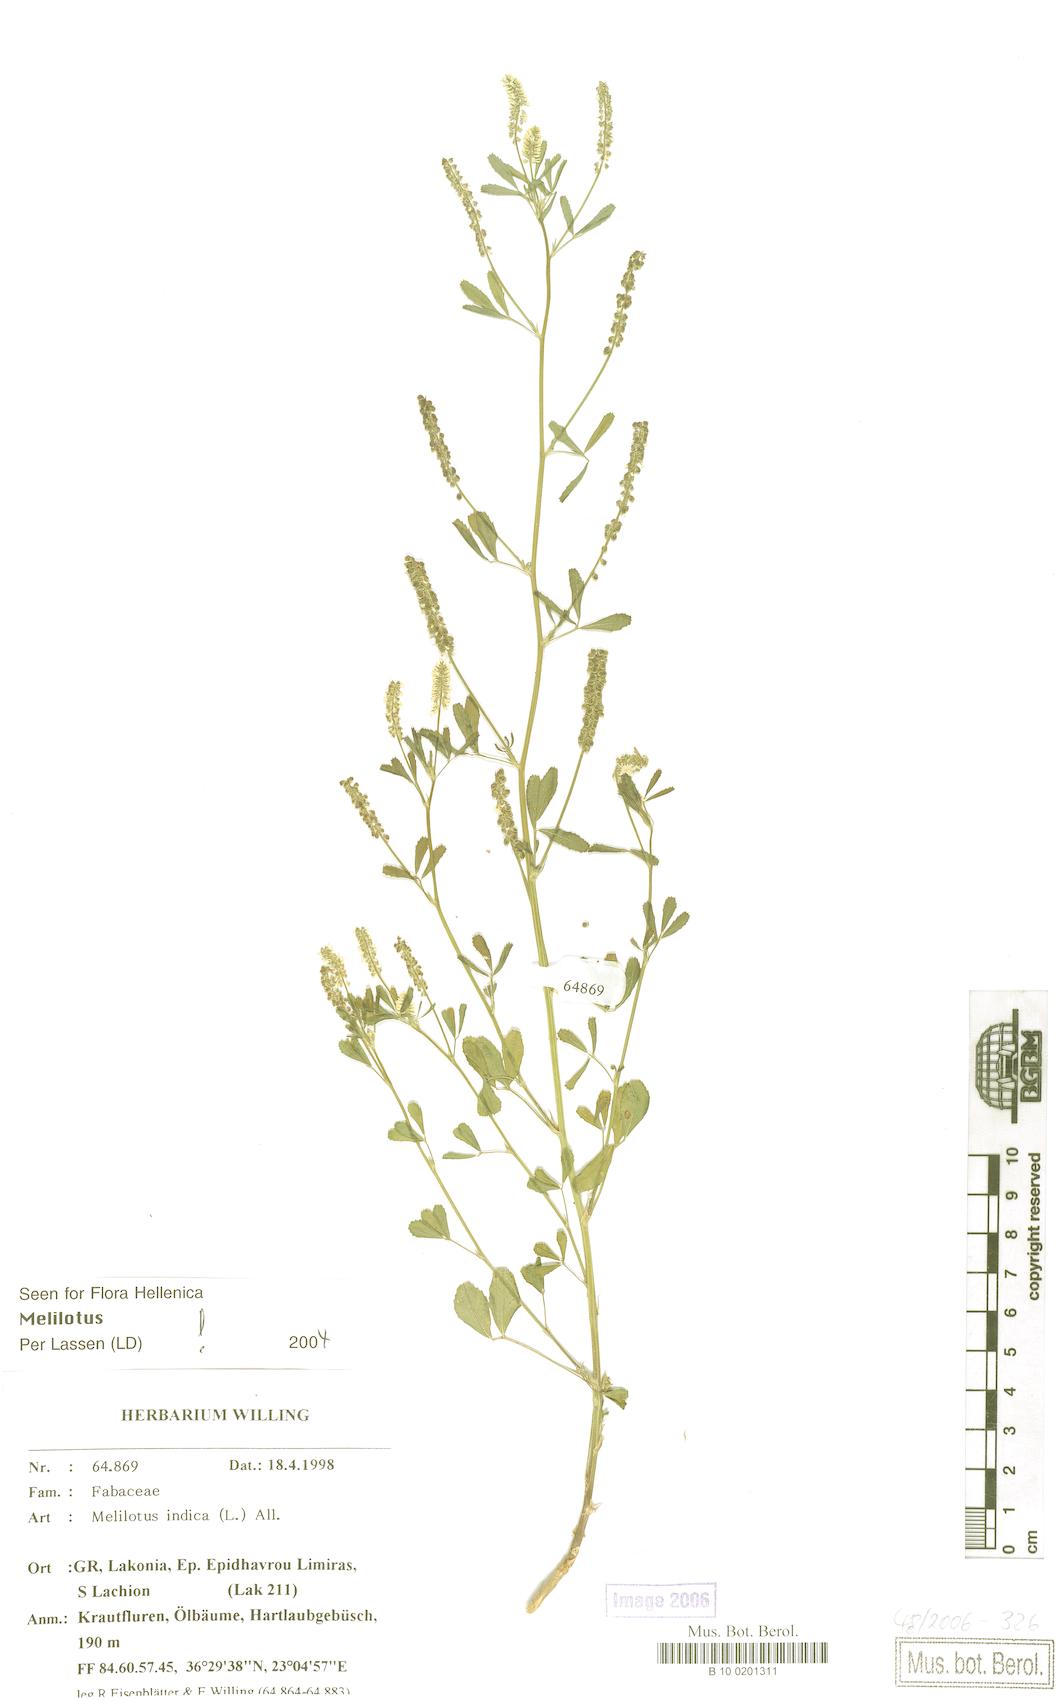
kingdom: Plantae
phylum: Tracheophyta
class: Magnoliopsida
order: Fabales
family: Fabaceae
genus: Melilotus
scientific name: Melilotus indicus
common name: Small melilot
